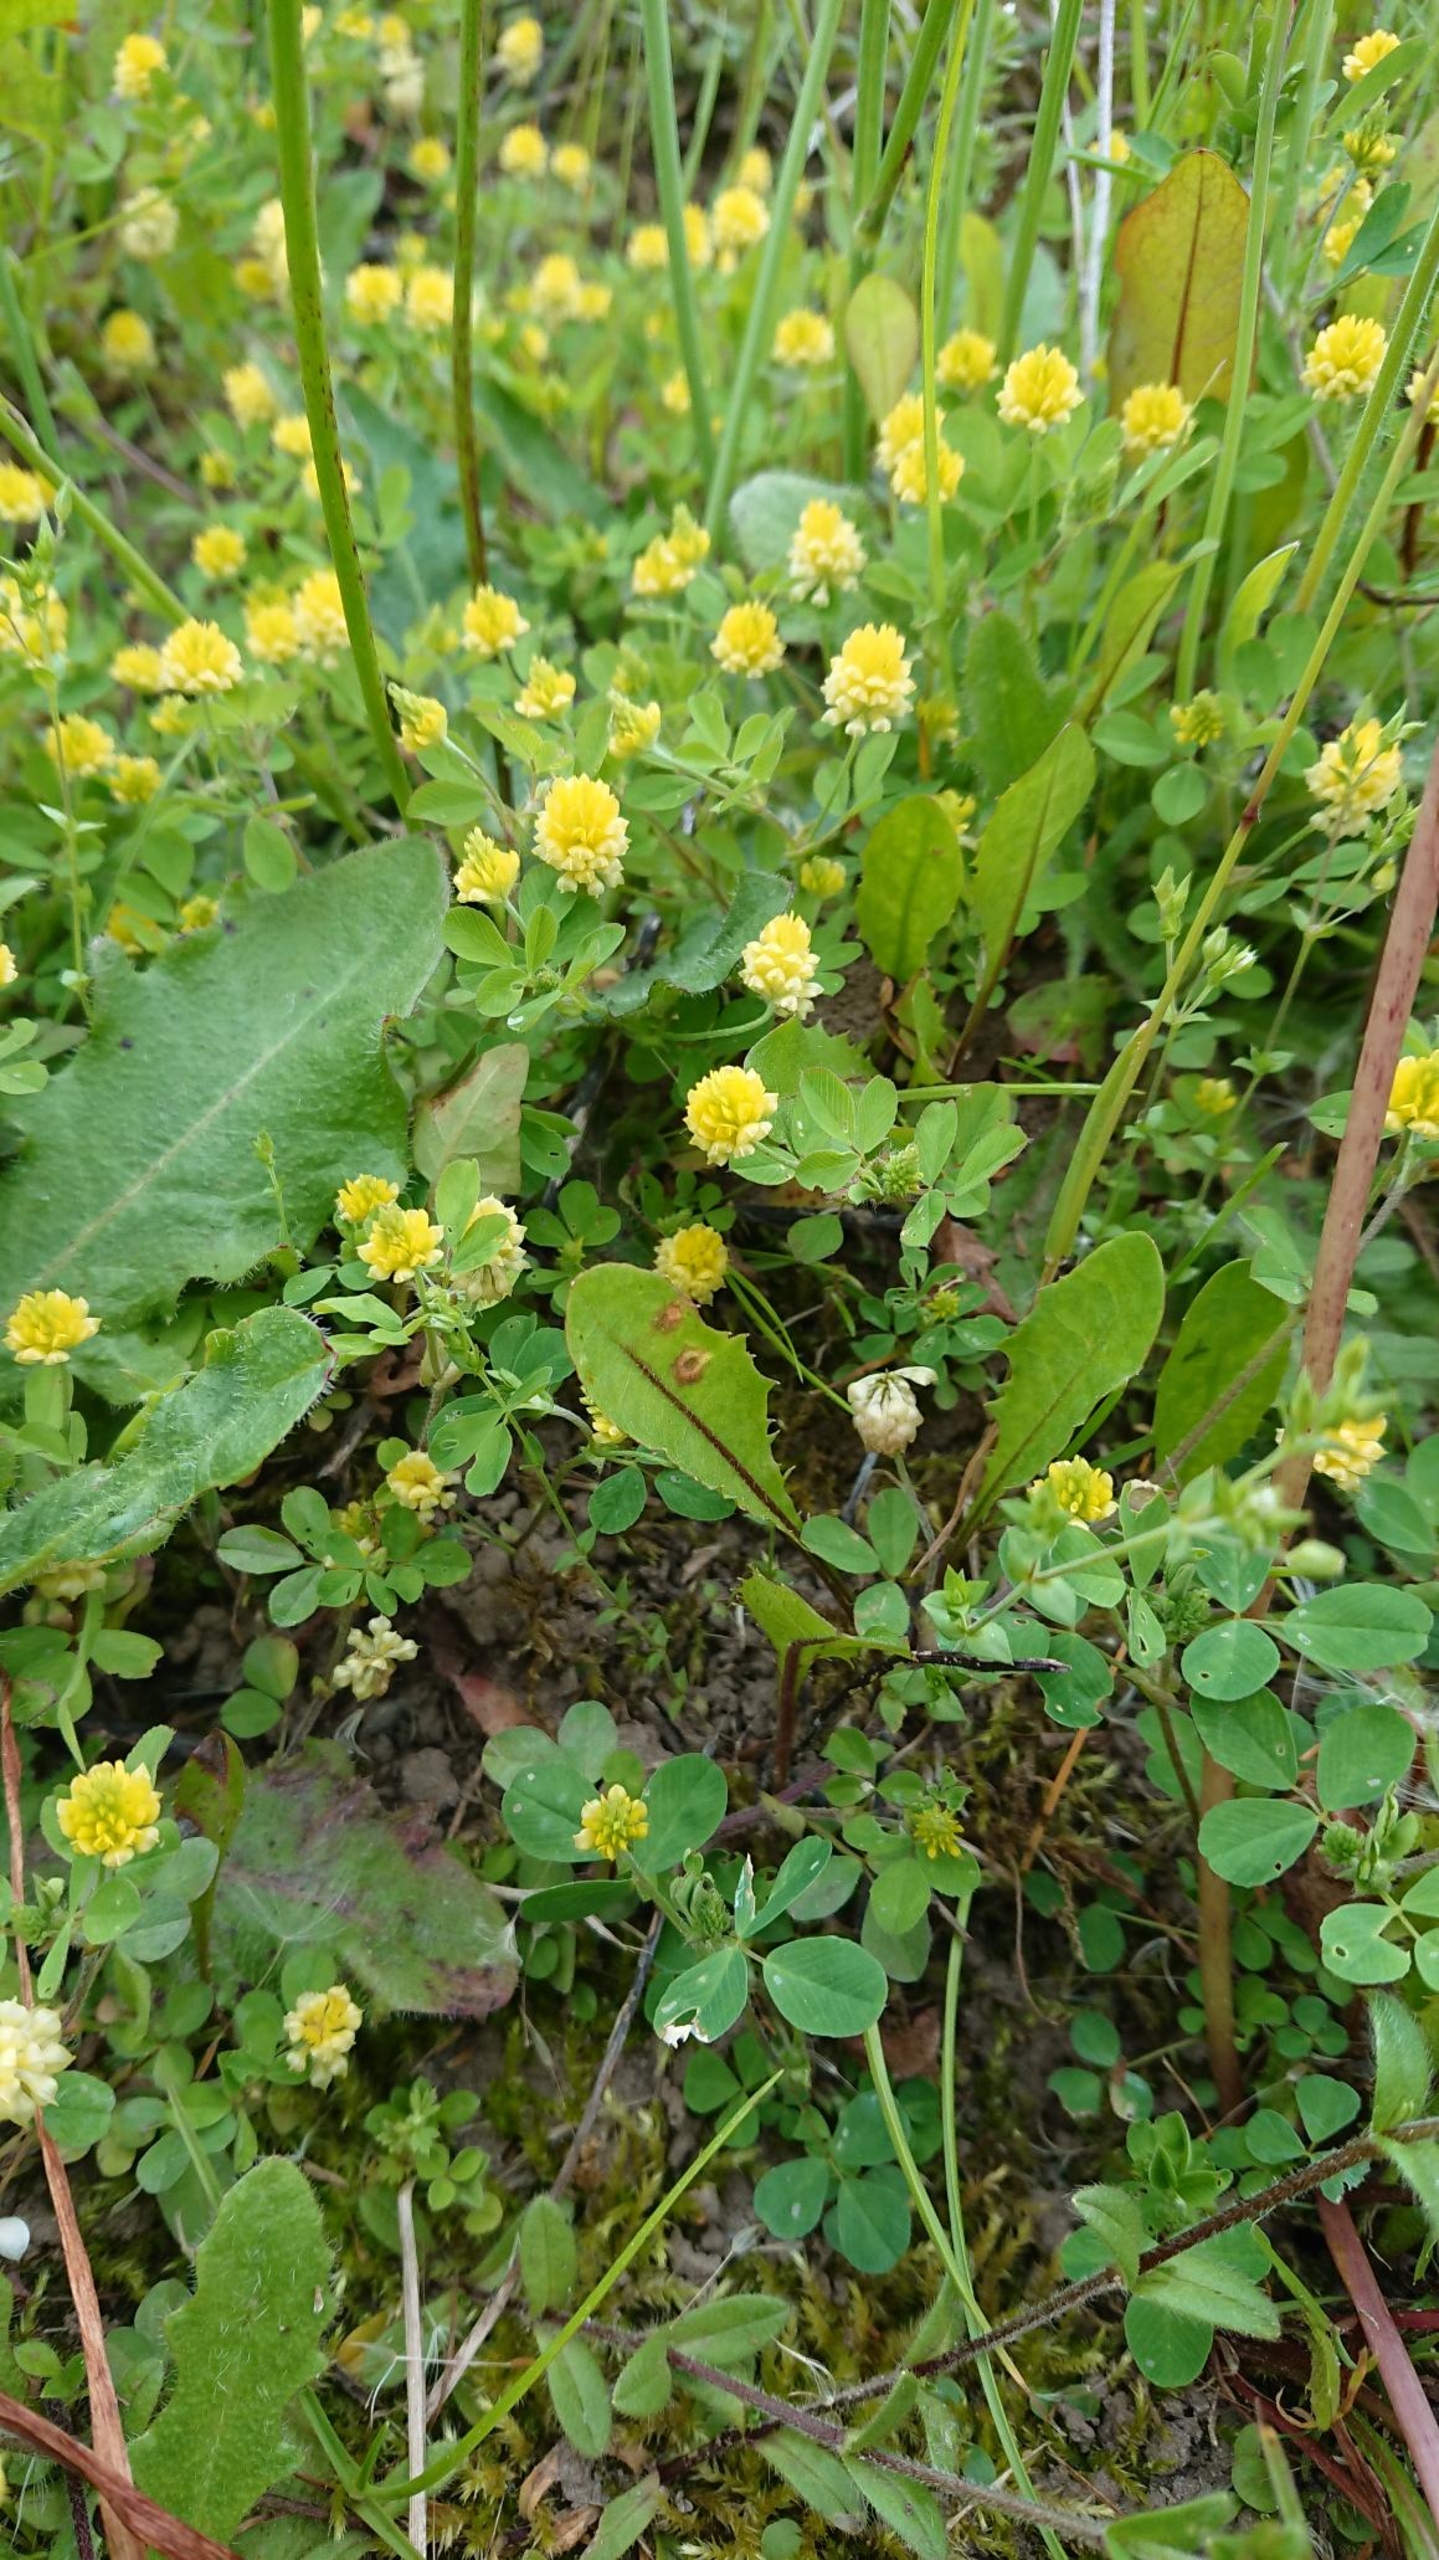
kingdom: Plantae
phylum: Tracheophyta
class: Magnoliopsida
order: Fabales
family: Fabaceae
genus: Trifolium
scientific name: Trifolium campestre
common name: Gul kløver
